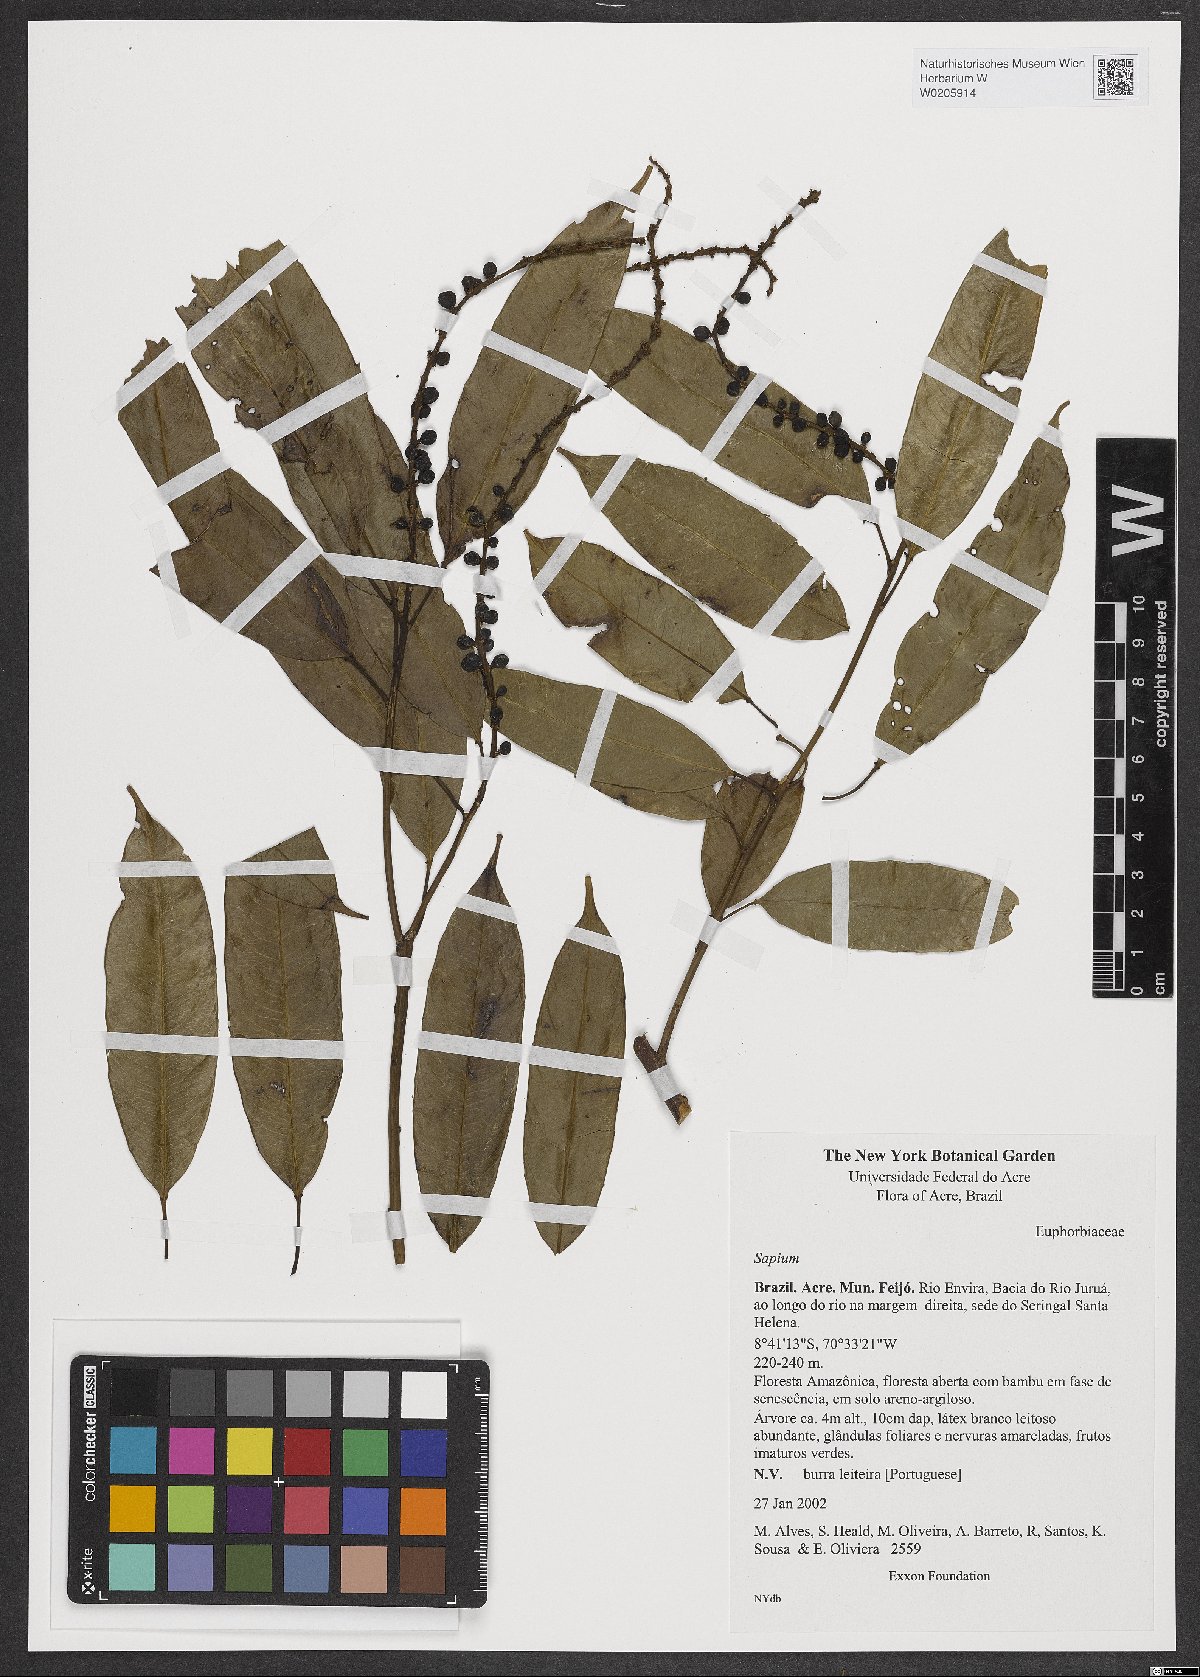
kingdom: Plantae
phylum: Tracheophyta
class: Magnoliopsida
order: Malpighiales
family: Euphorbiaceae
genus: Sapium
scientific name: Sapium
